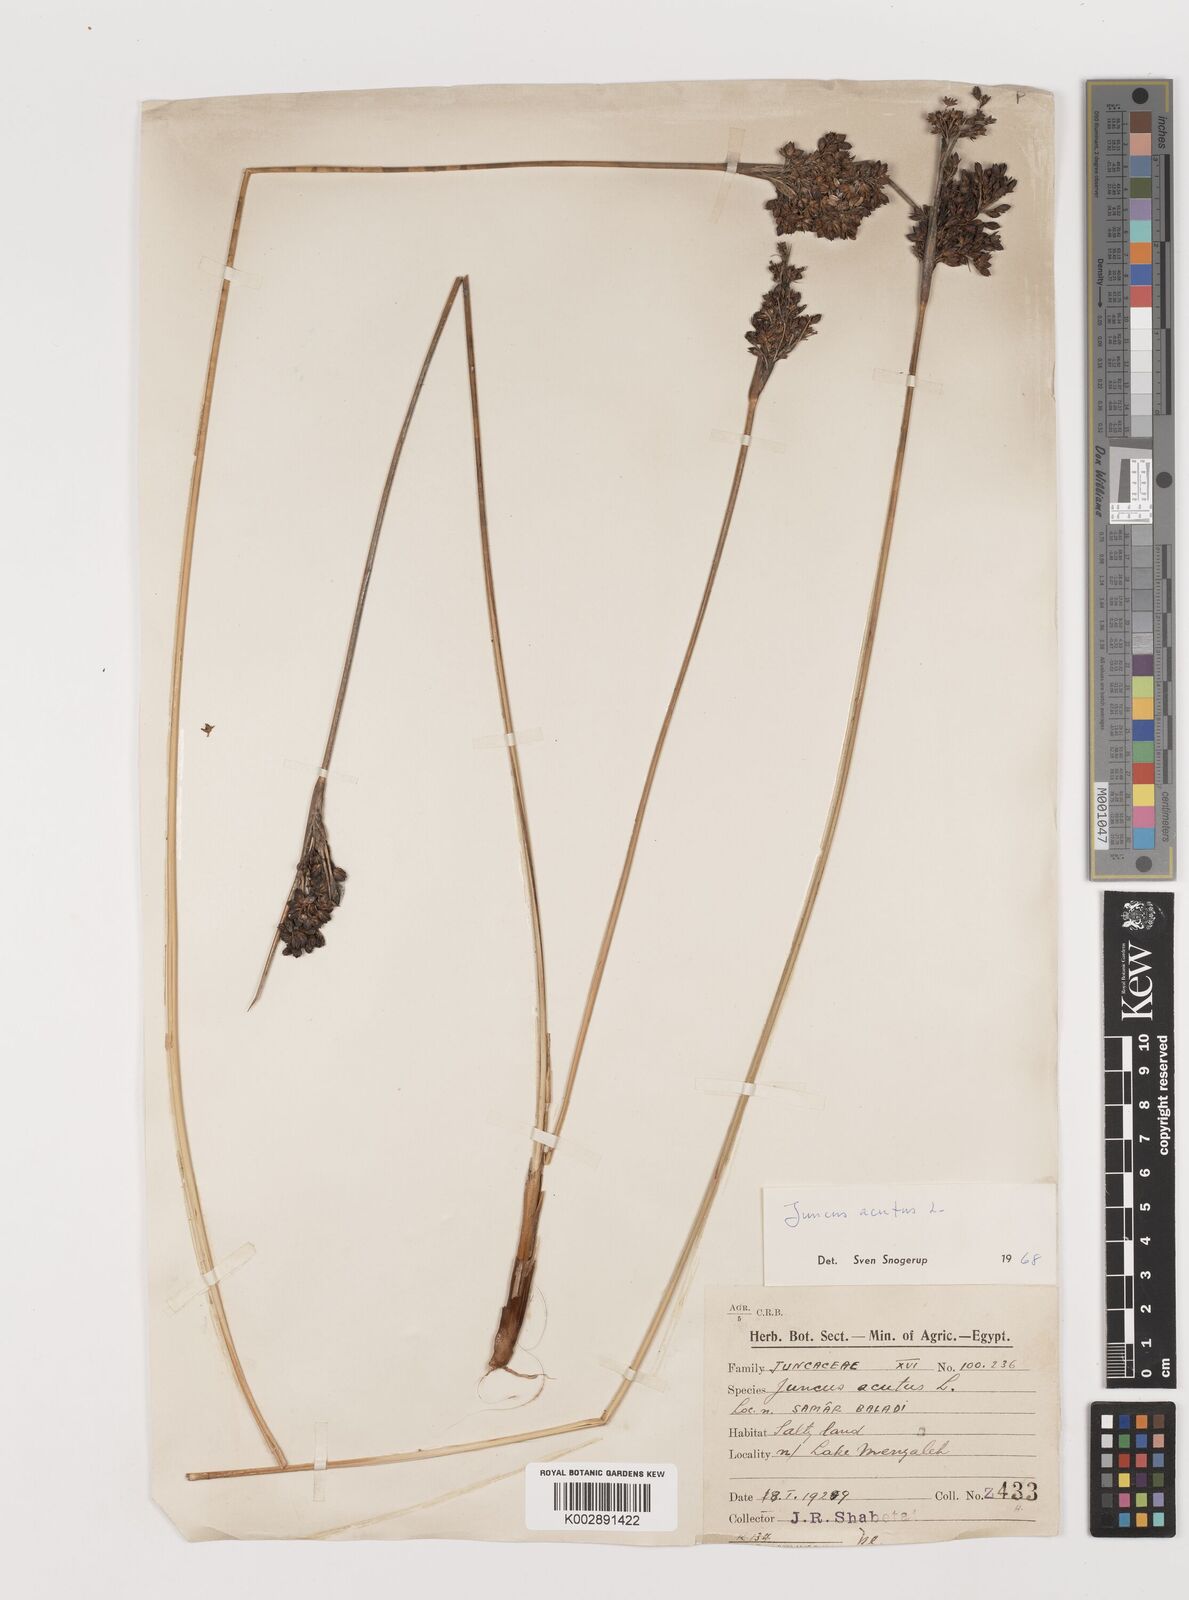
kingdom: Plantae
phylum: Tracheophyta
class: Liliopsida
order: Poales
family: Juncaceae
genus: Juncus
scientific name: Juncus acutus
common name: Sharp rush
